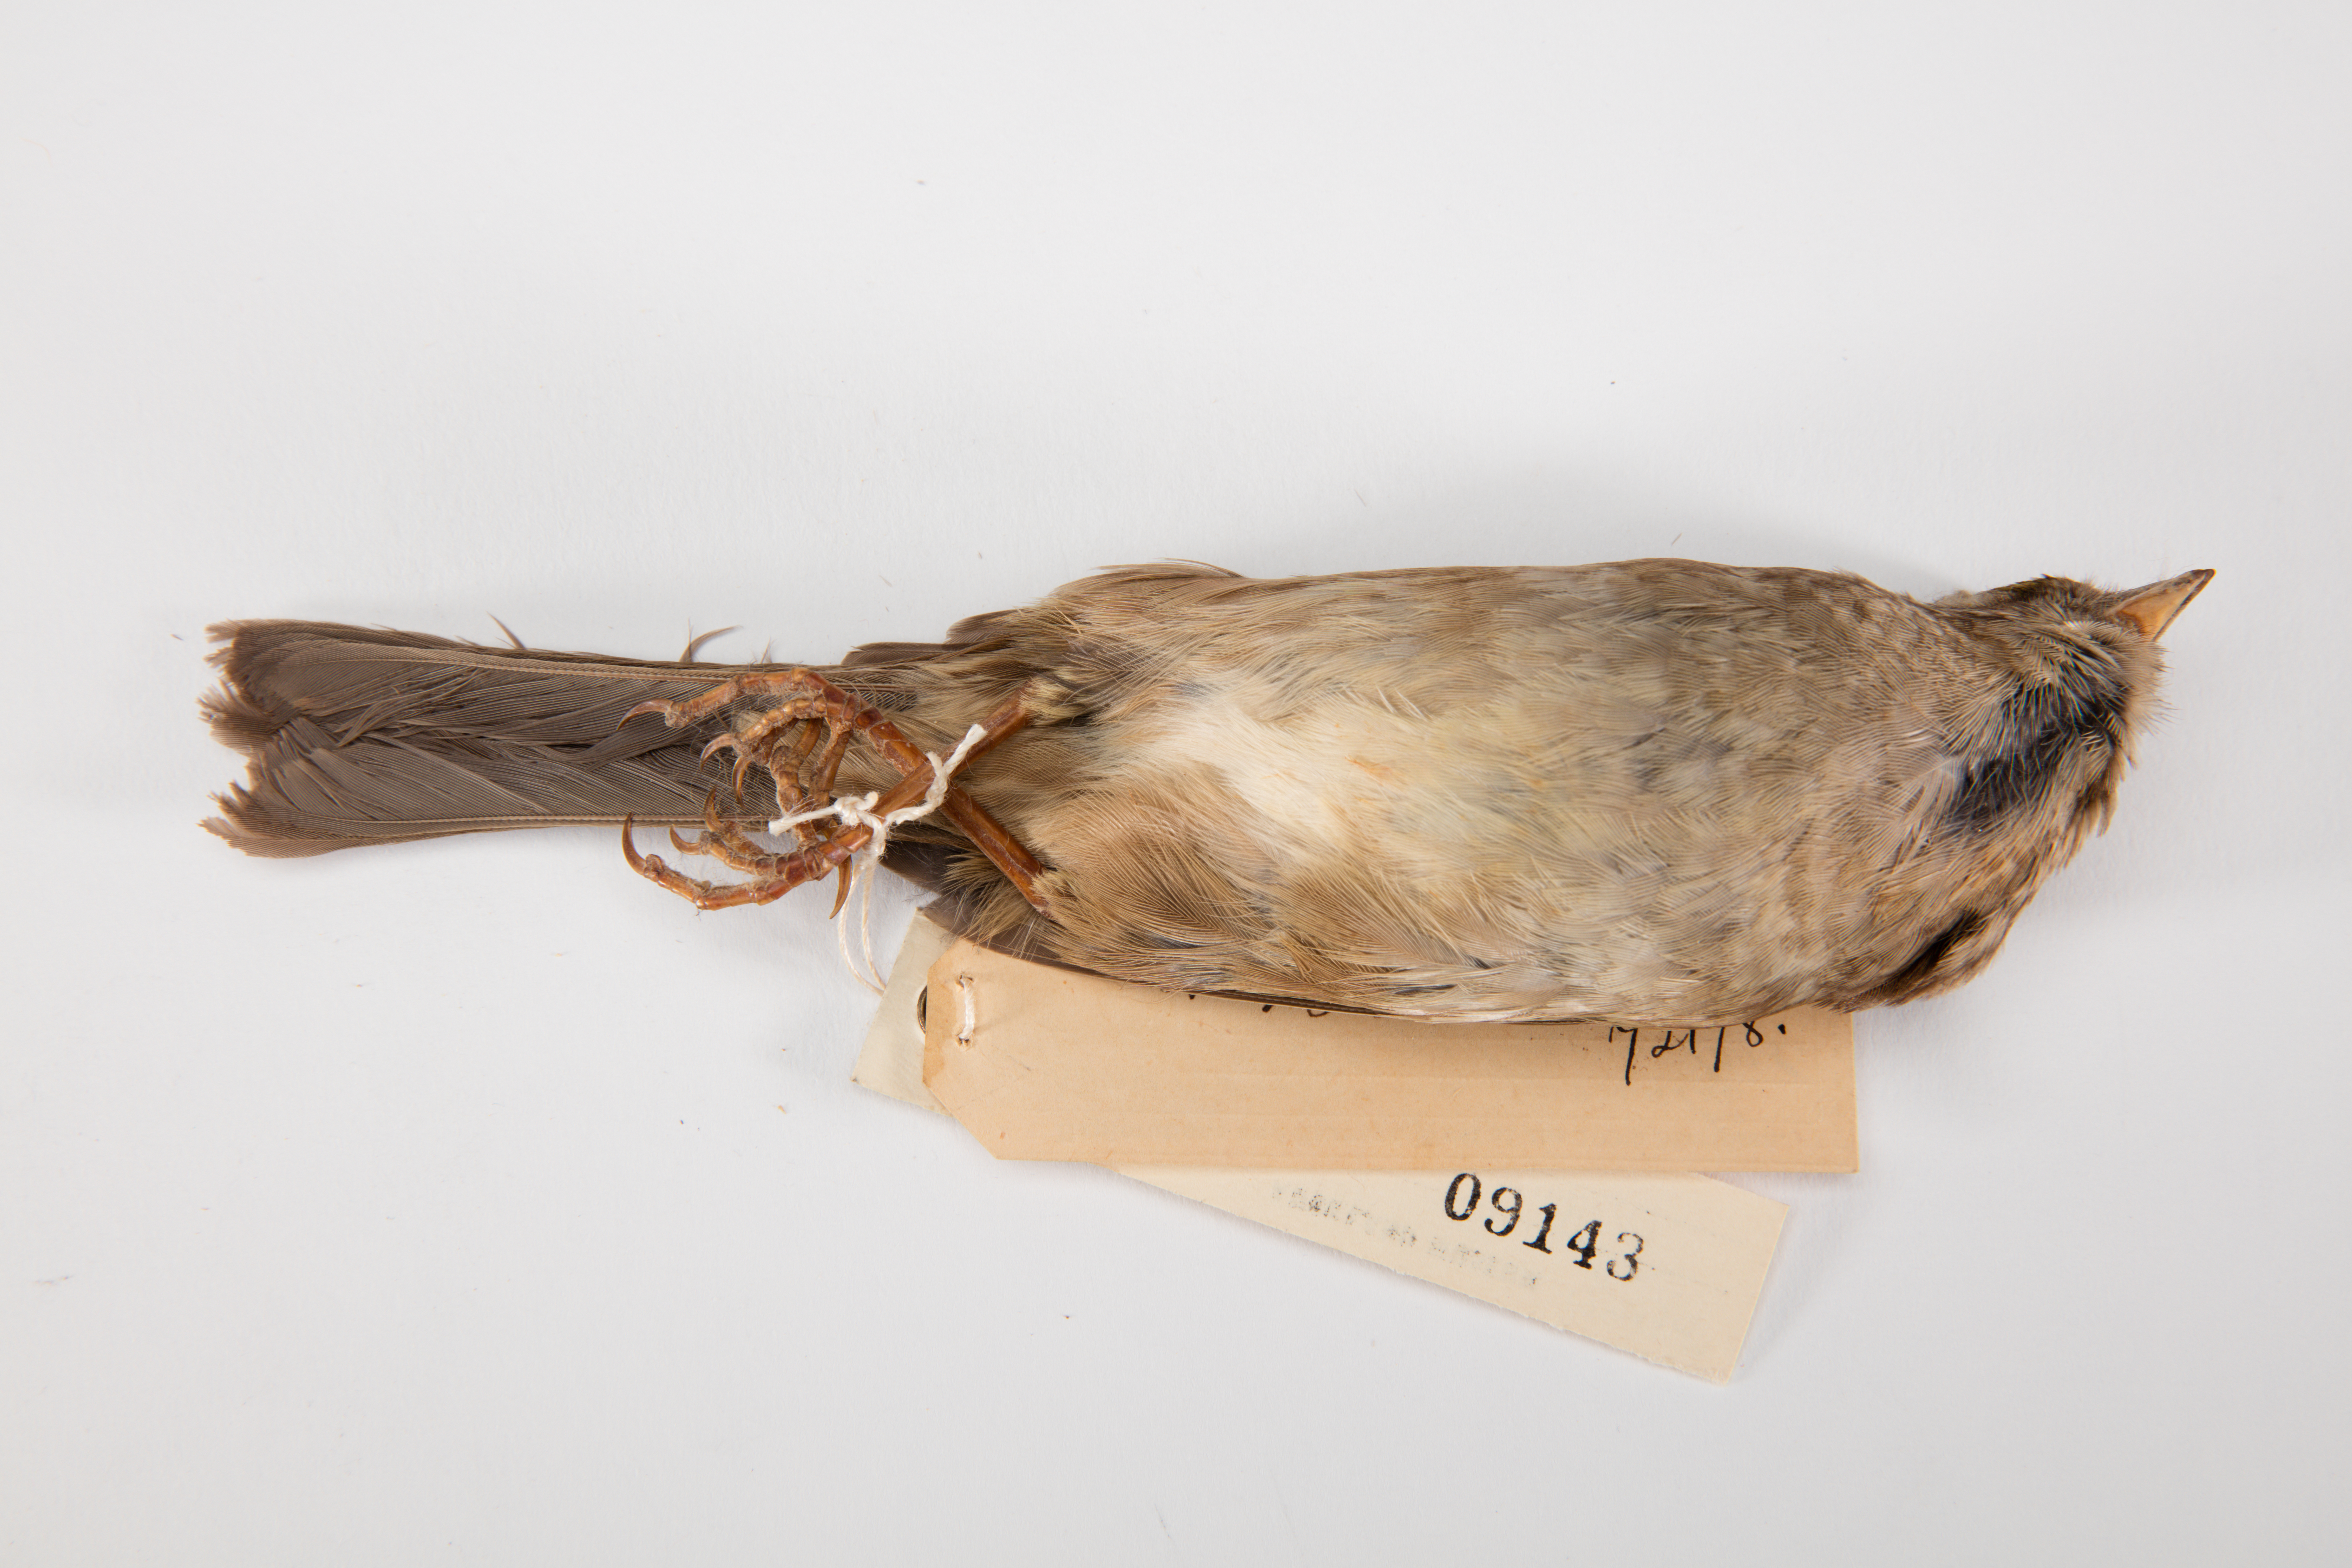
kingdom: Animalia
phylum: Chordata
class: Aves
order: Passeriformes
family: Passerellidae
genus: Zonotrichia
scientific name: Zonotrichia atricapilla
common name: Golden-crowned sparrow
